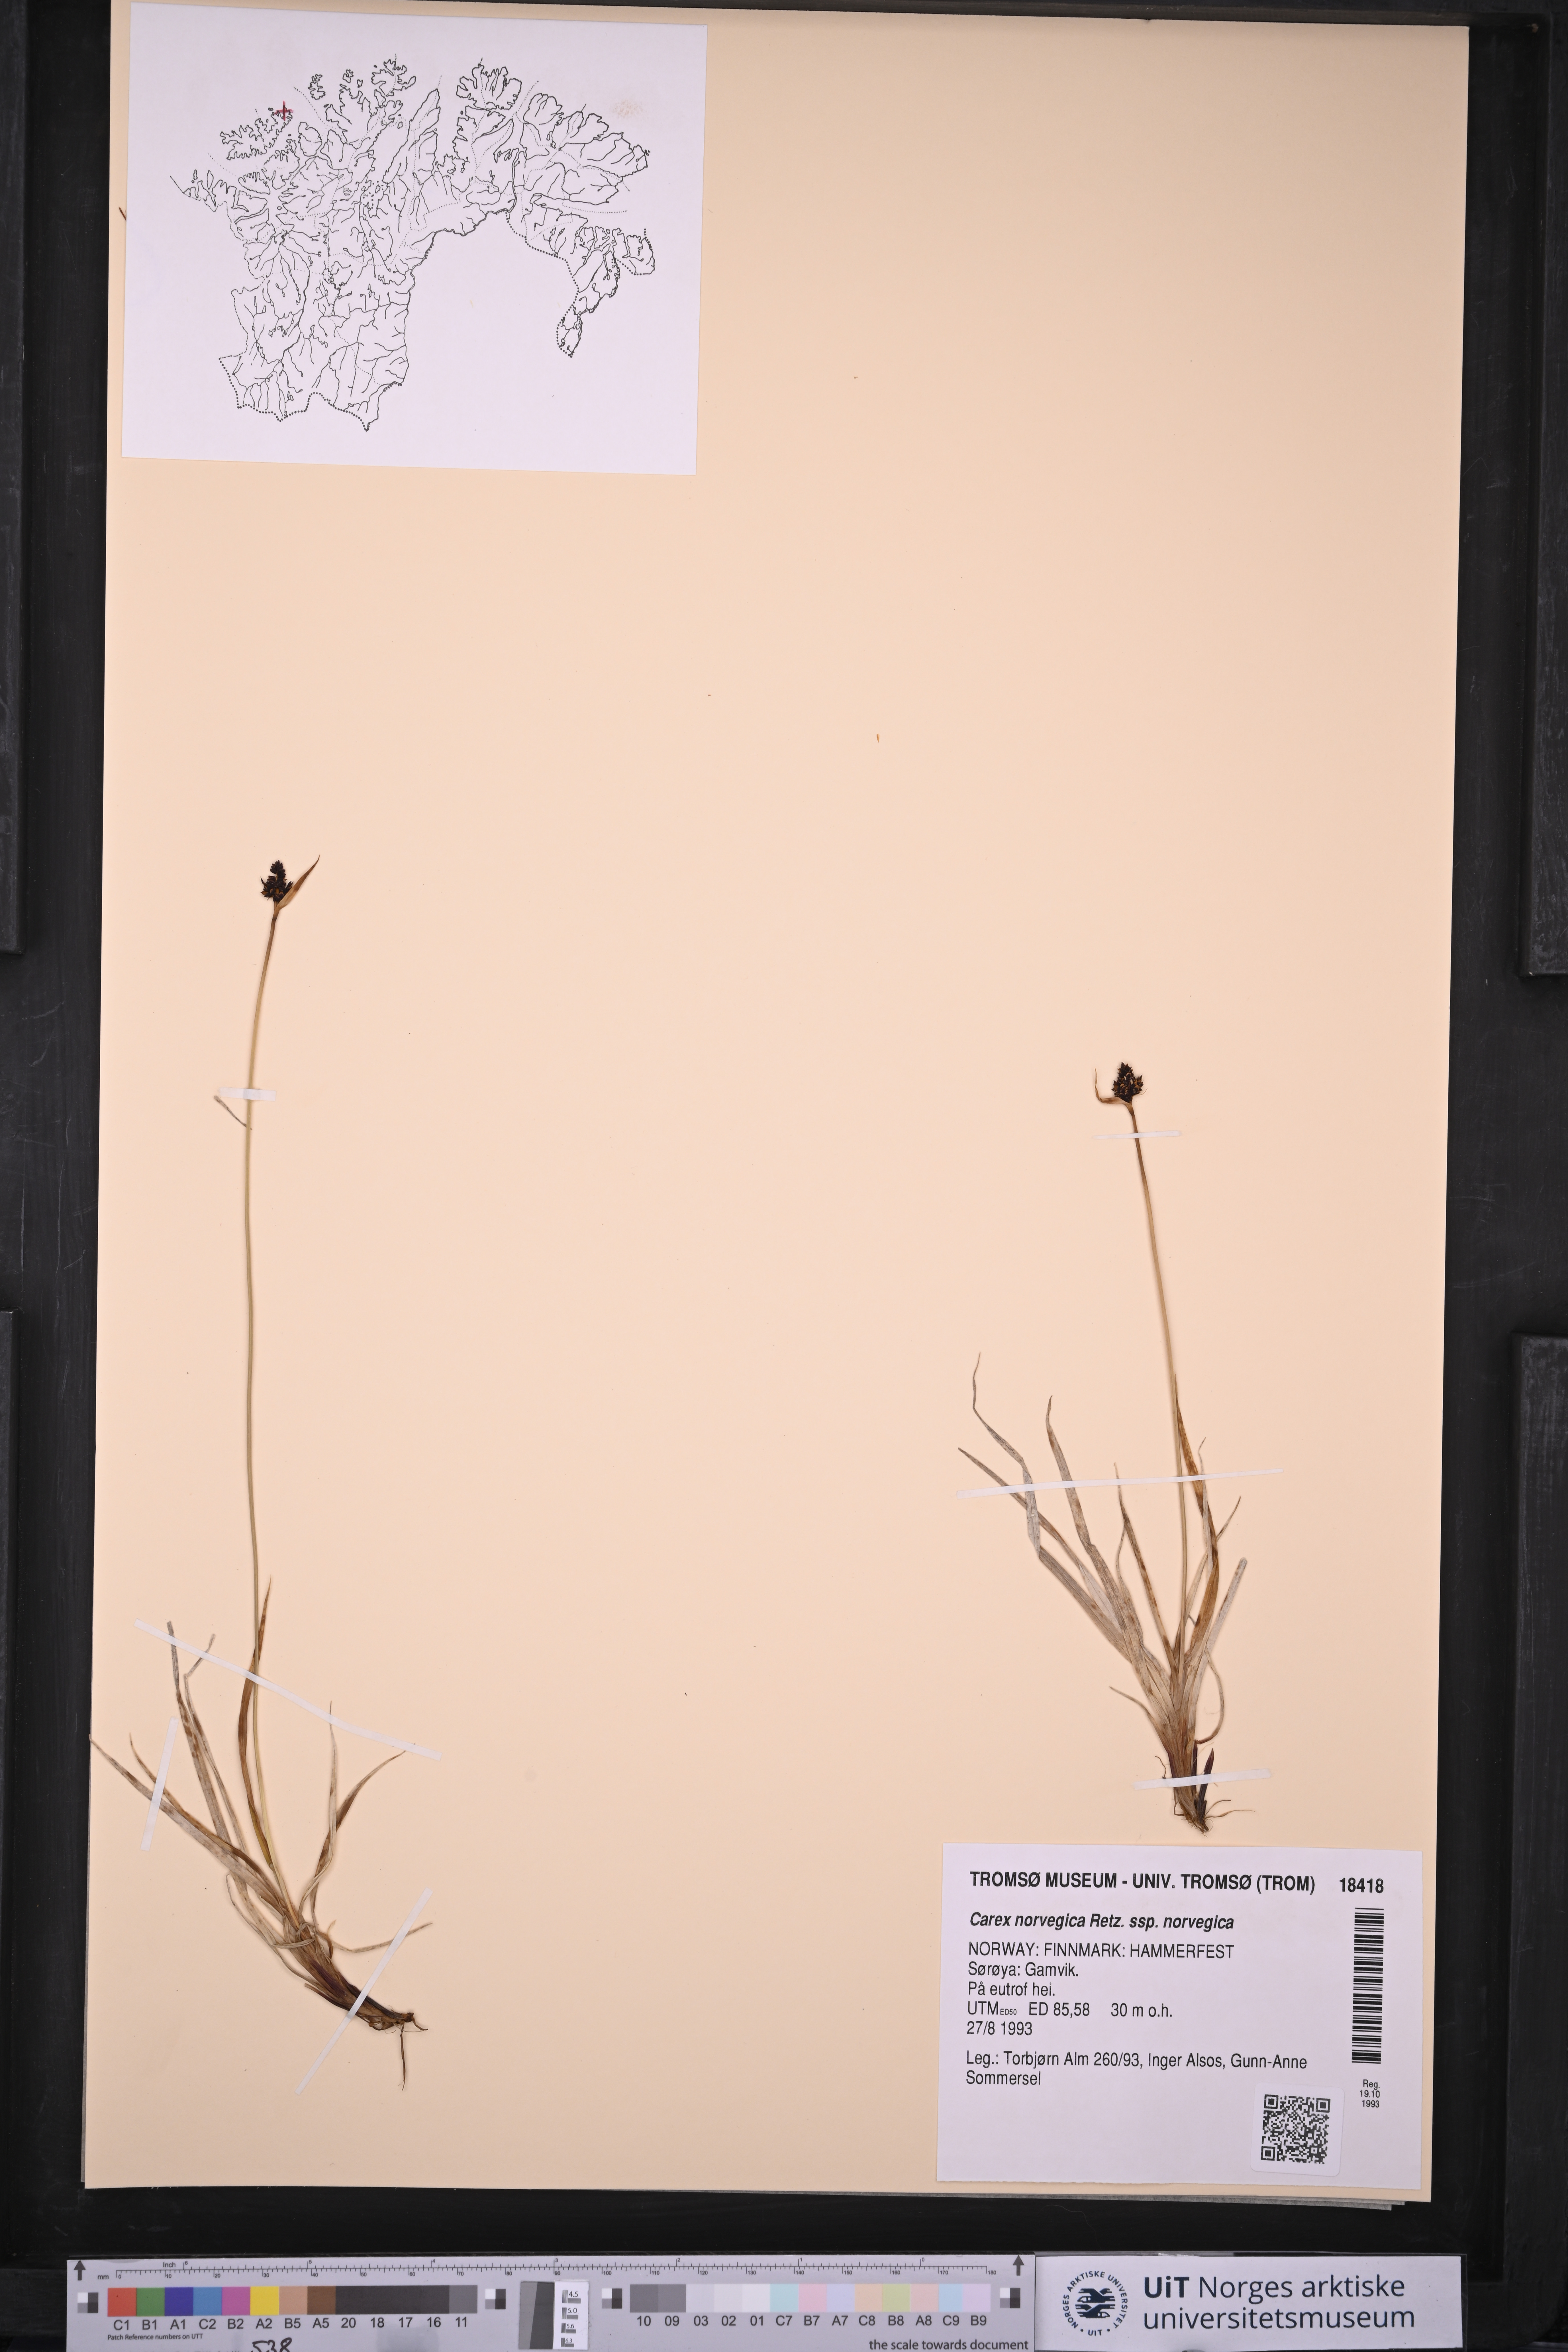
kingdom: Plantae
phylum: Tracheophyta
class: Liliopsida
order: Poales
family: Cyperaceae
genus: Carex
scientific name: Carex norvegica
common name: Close-headed alpine-sedge
